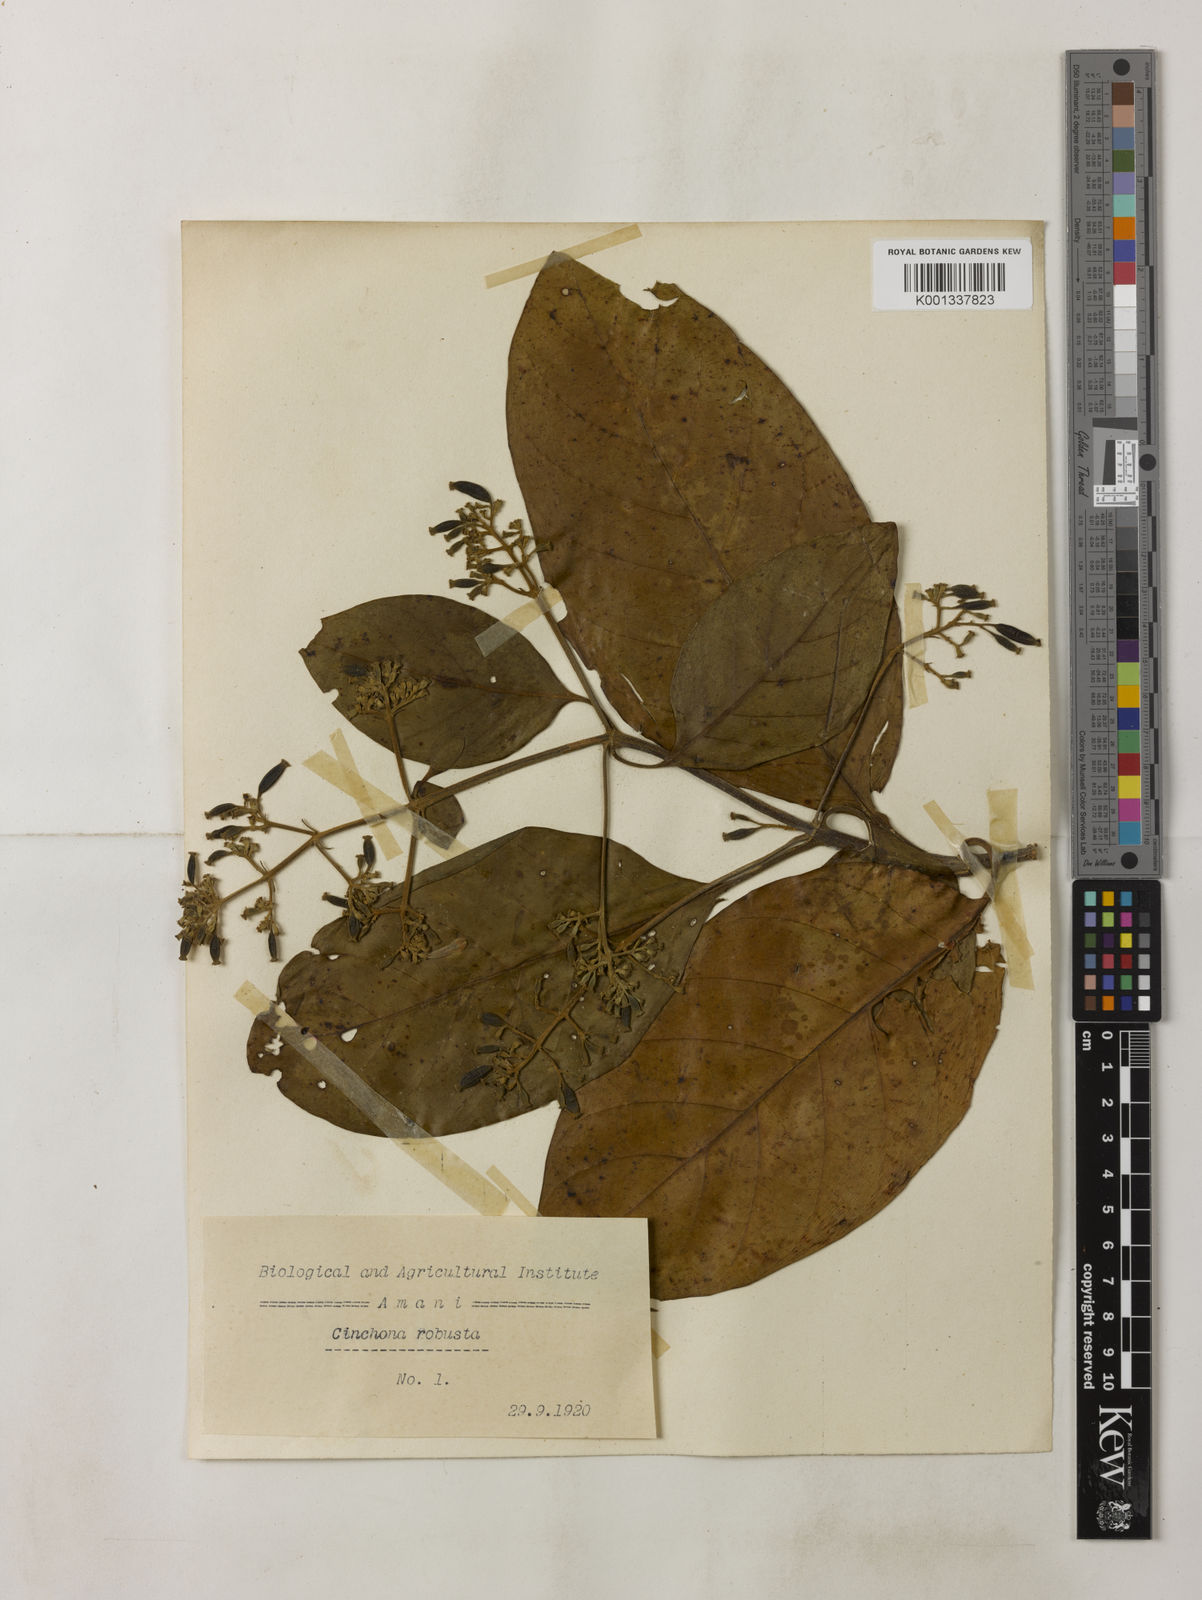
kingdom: Plantae
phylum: Tracheophyta
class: Magnoliopsida
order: Gentianales
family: Rubiaceae
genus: Cinchona
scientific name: Cinchona officinalis
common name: Lojabark
